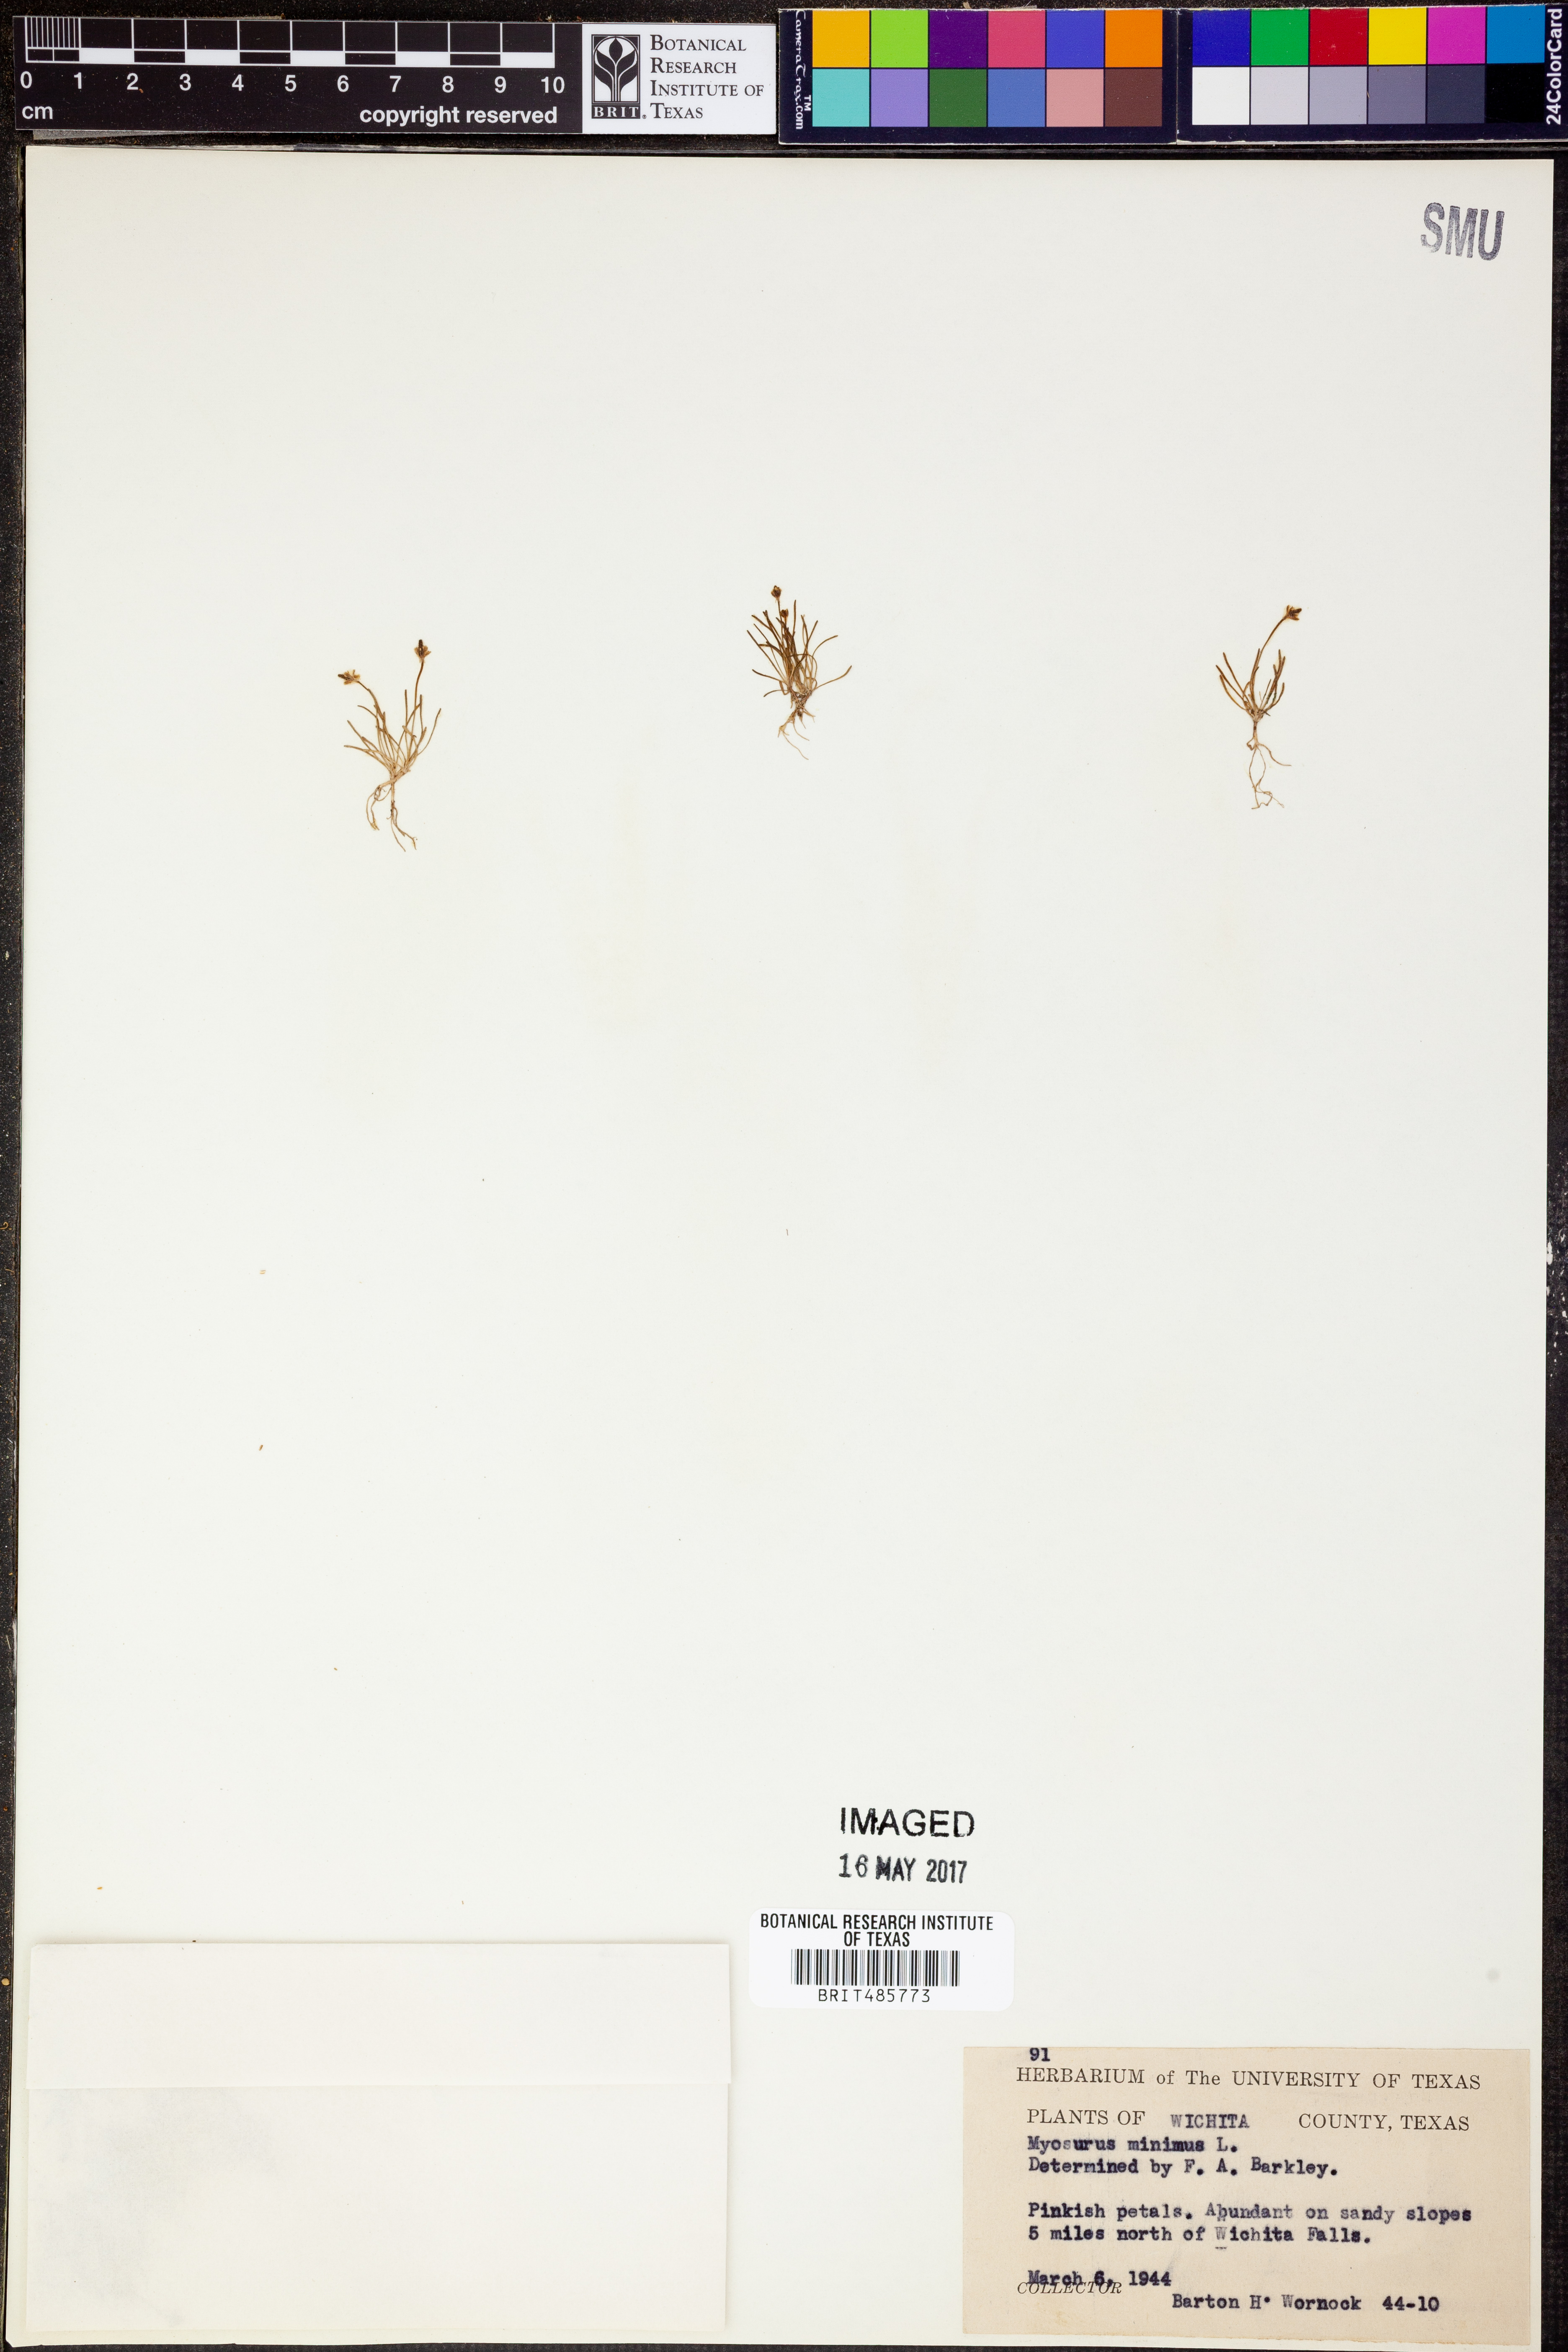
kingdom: Plantae
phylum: Tracheophyta
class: Magnoliopsida
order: Ranunculales
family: Ranunculaceae
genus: Myosurus
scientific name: Myosurus minimus
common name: Mousetail
